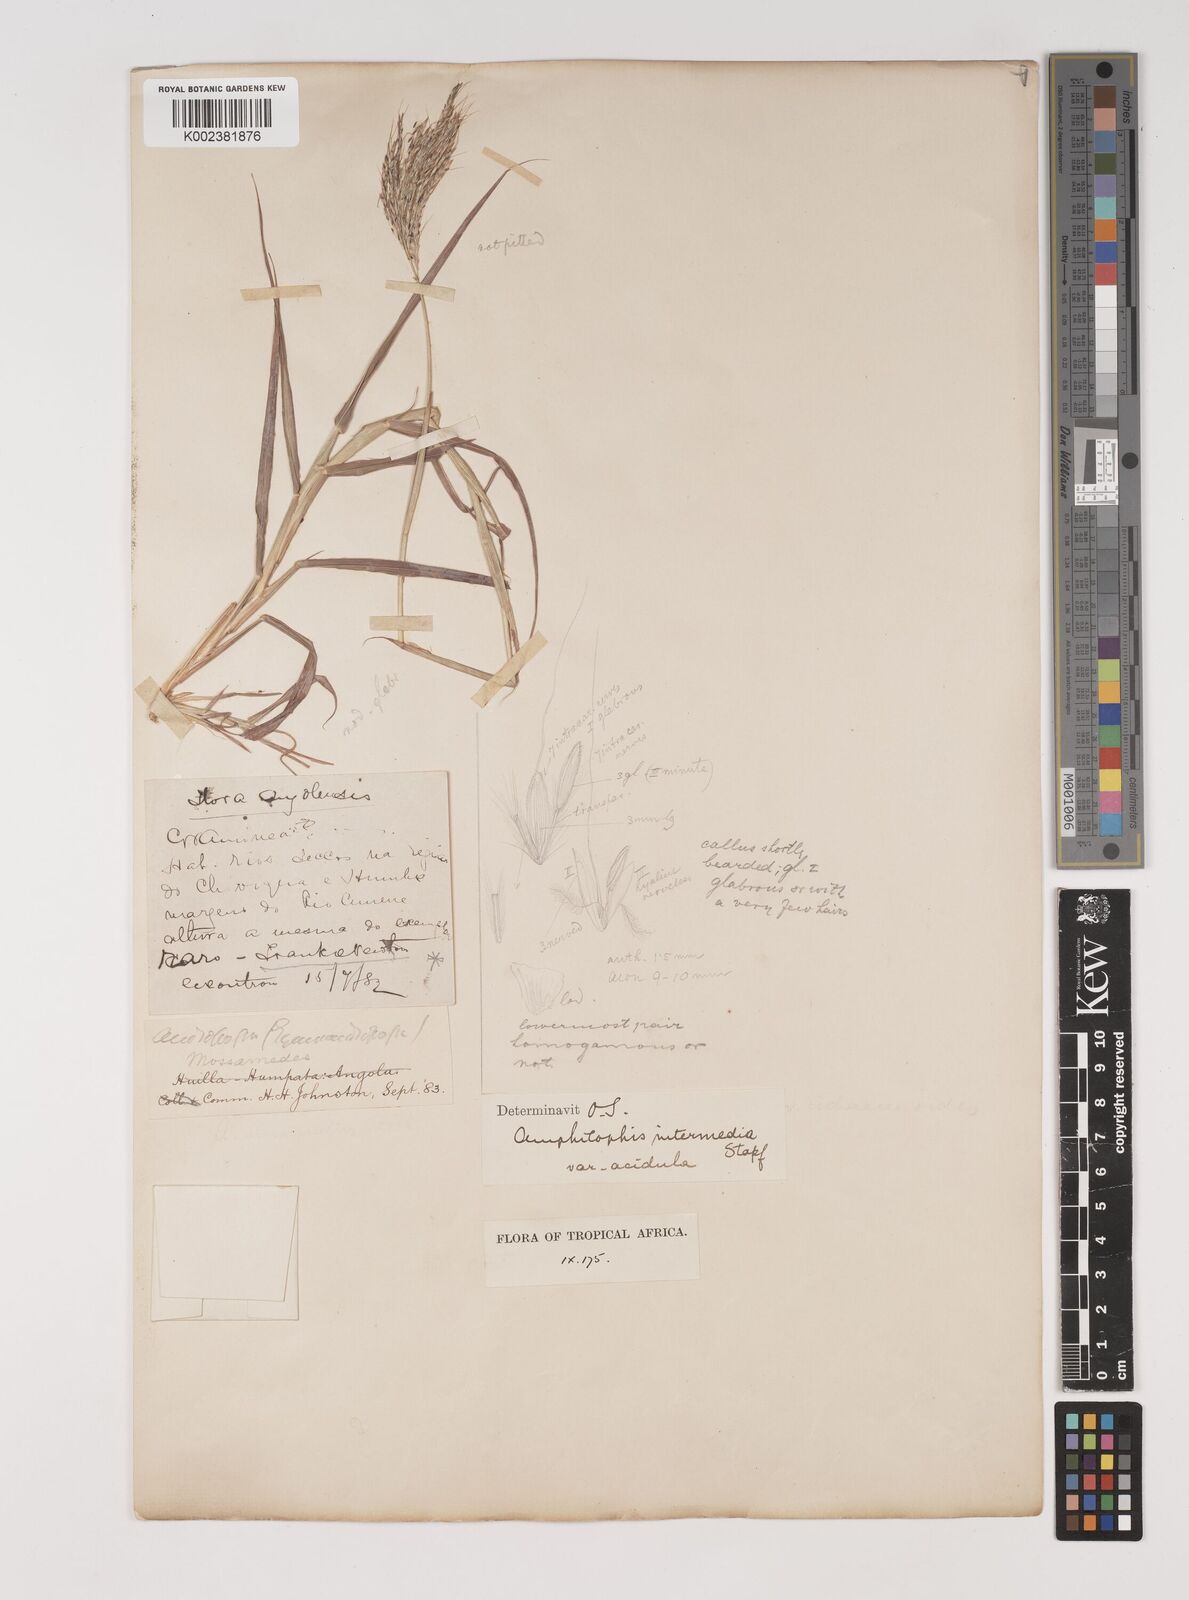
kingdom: Plantae
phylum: Tracheophyta
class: Liliopsida
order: Poales
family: Poaceae
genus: Bothriochloa
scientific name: Bothriochloa radicans
